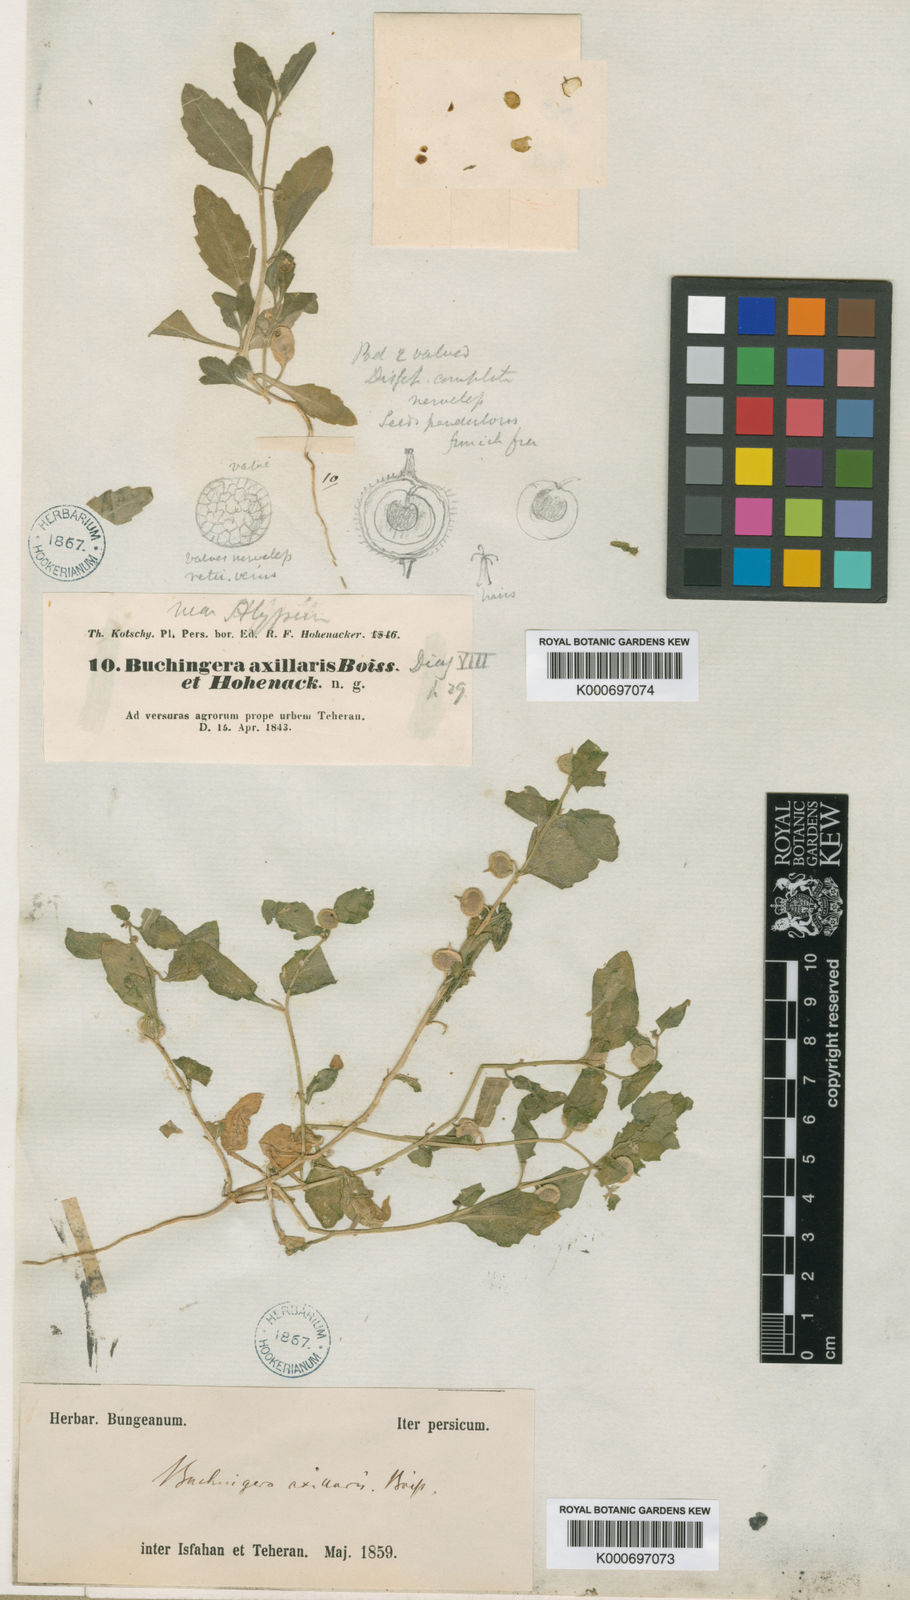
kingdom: Plantae
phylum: Tracheophyta
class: Magnoliopsida
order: Brassicales
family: Brassicaceae
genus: Asperuginoides
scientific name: Asperuginoides axillaris
